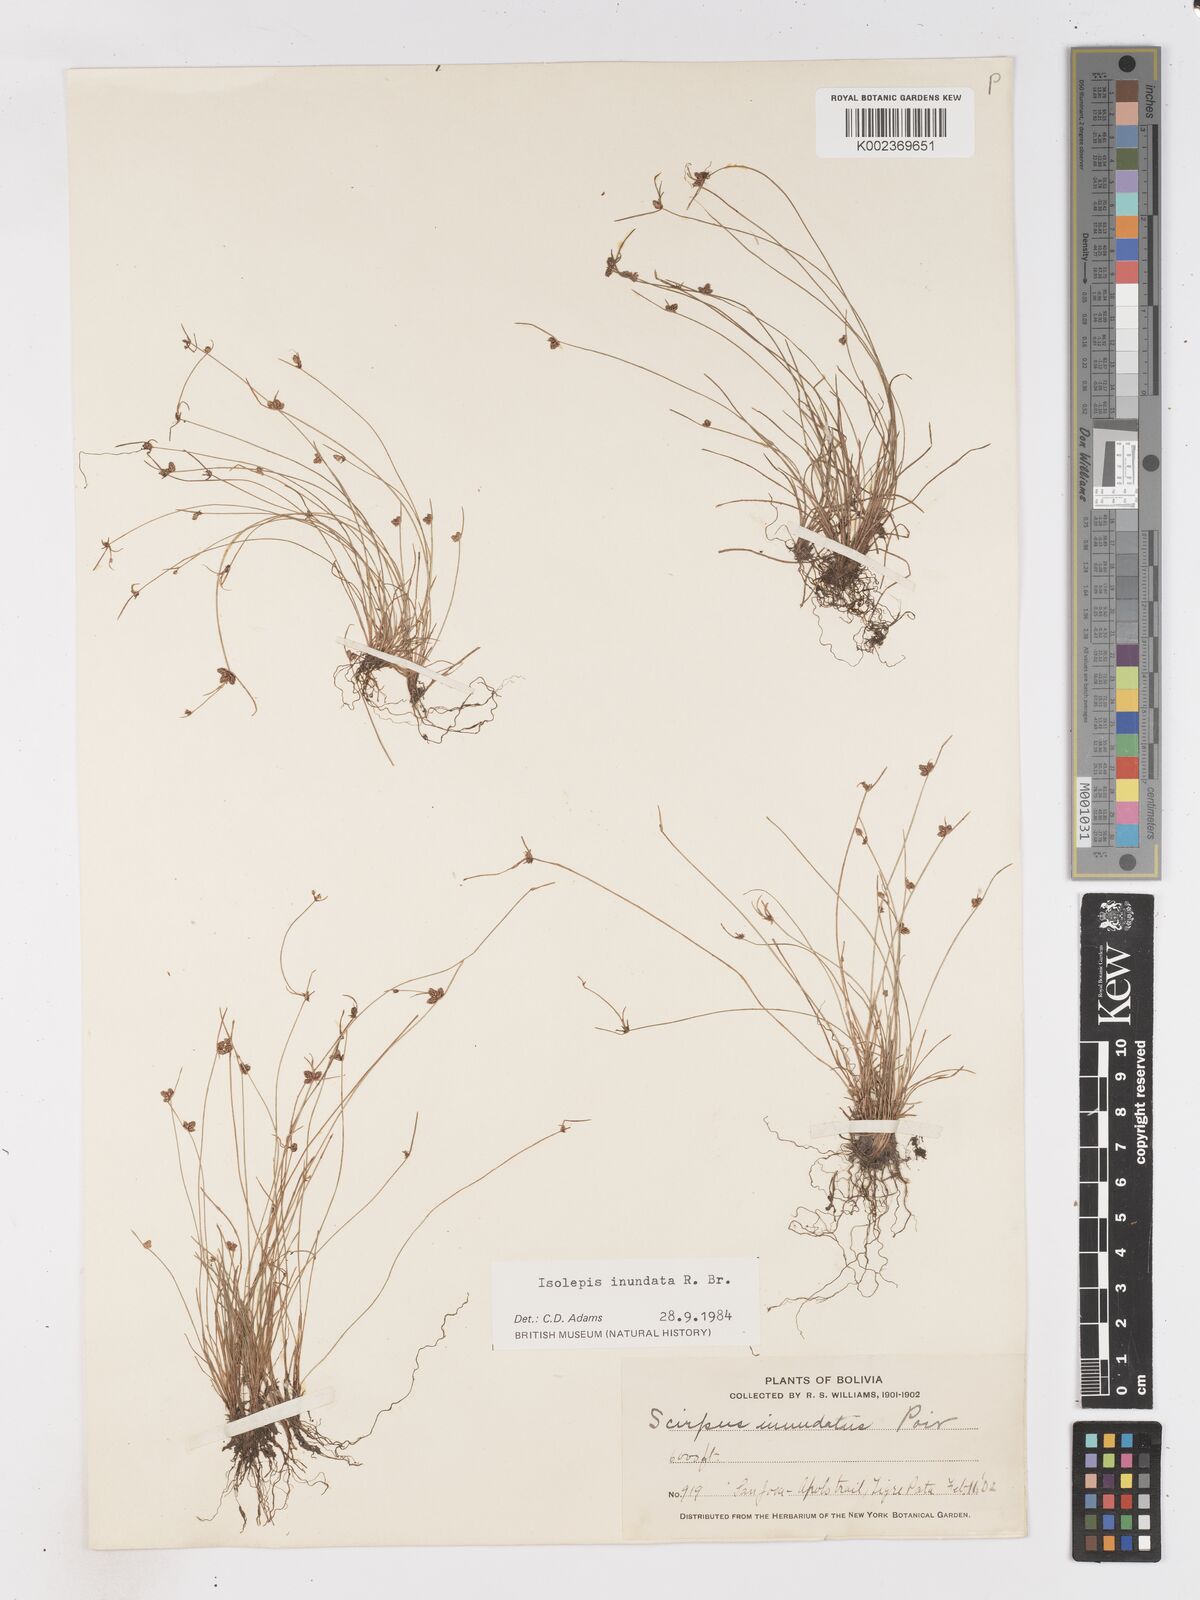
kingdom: Plantae
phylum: Tracheophyta
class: Liliopsida
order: Poales
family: Cyperaceae
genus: Isolepis
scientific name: Isolepis inundata
